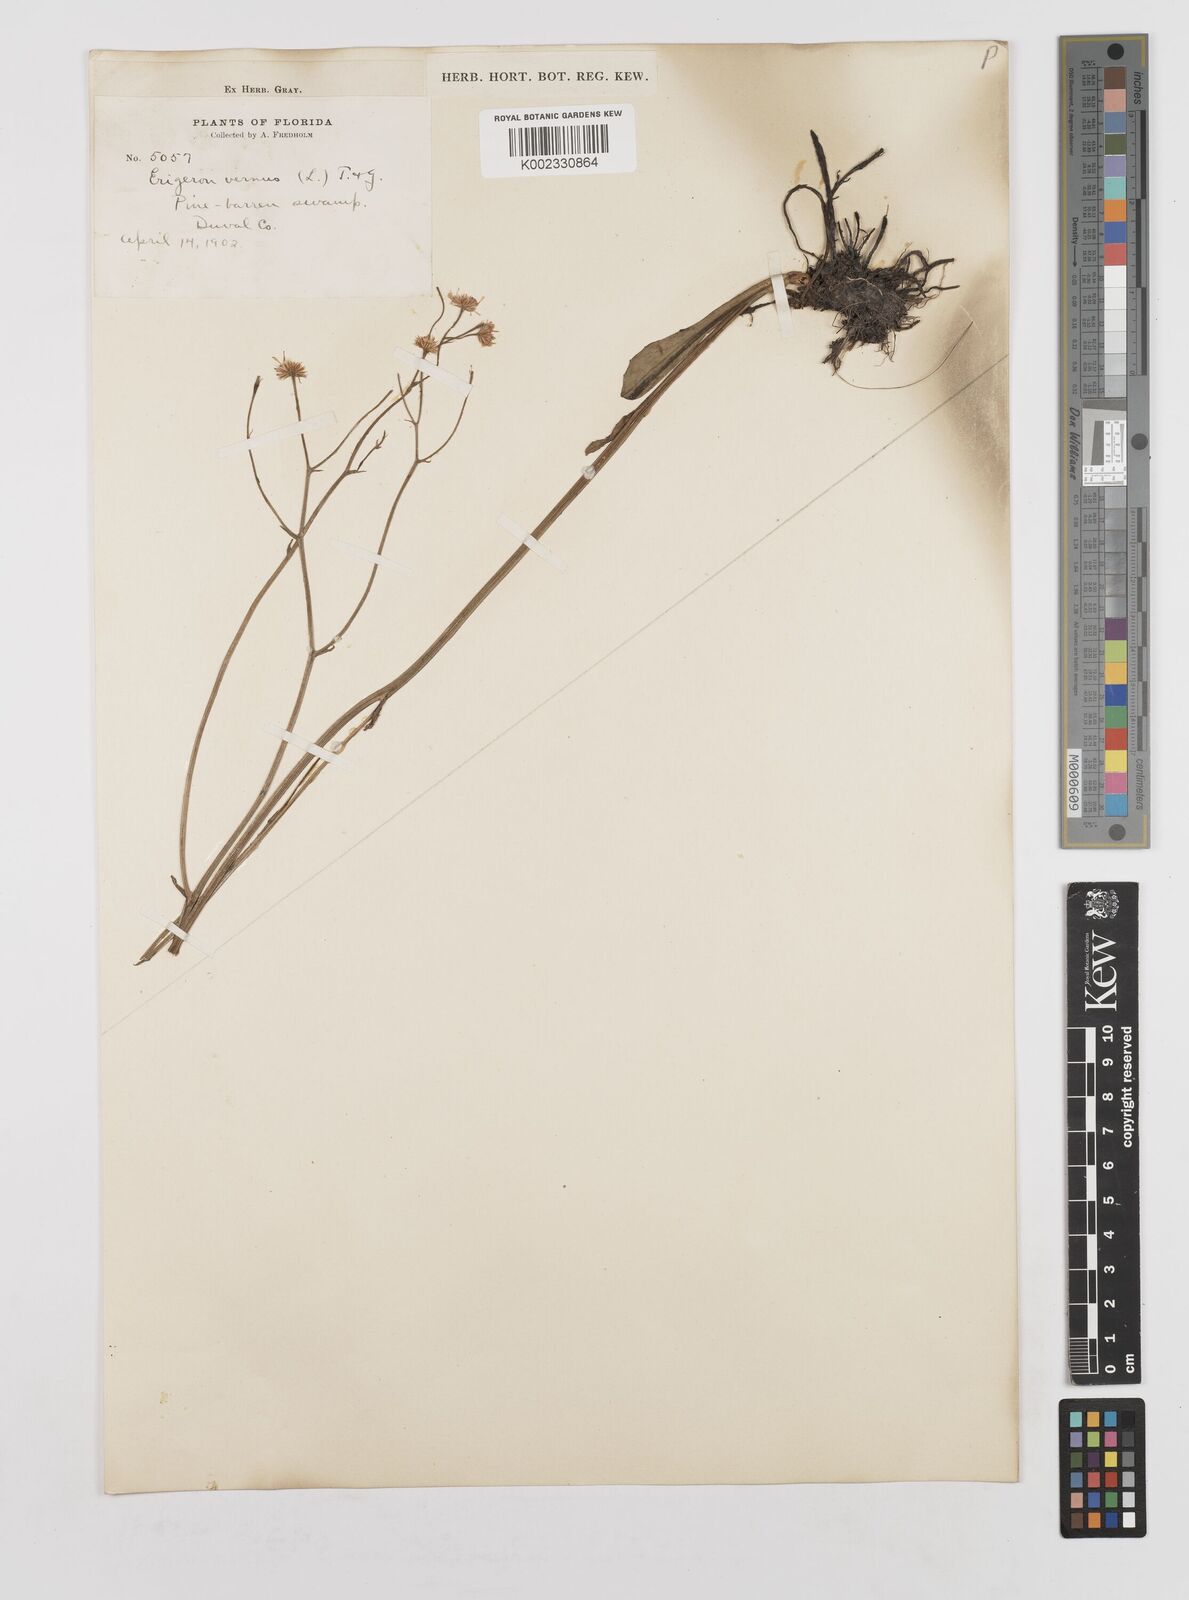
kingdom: Plantae
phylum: Tracheophyta
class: Magnoliopsida
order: Asterales
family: Asteraceae
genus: Erigeron
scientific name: Erigeron vernus
